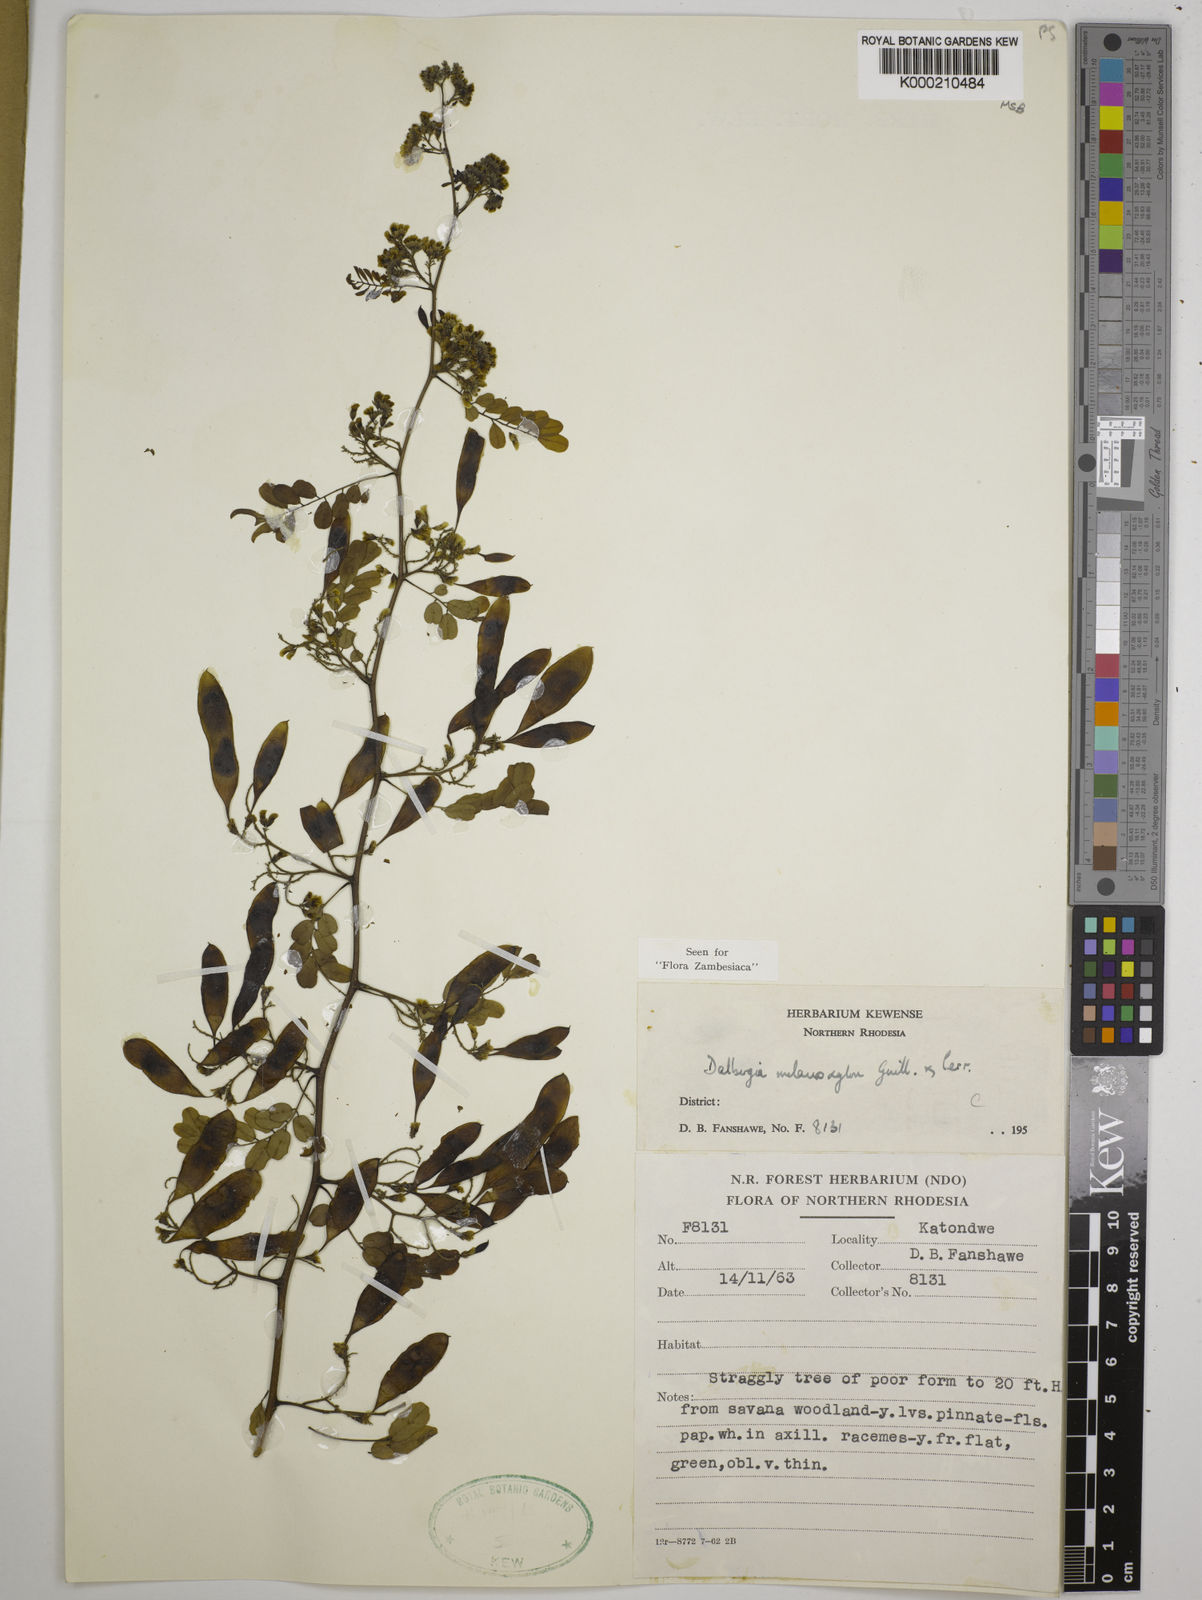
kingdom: Plantae
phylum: Tracheophyta
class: Magnoliopsida
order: Fabales
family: Fabaceae
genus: Dalbergia
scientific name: Dalbergia melanoxylon
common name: African blackwood
